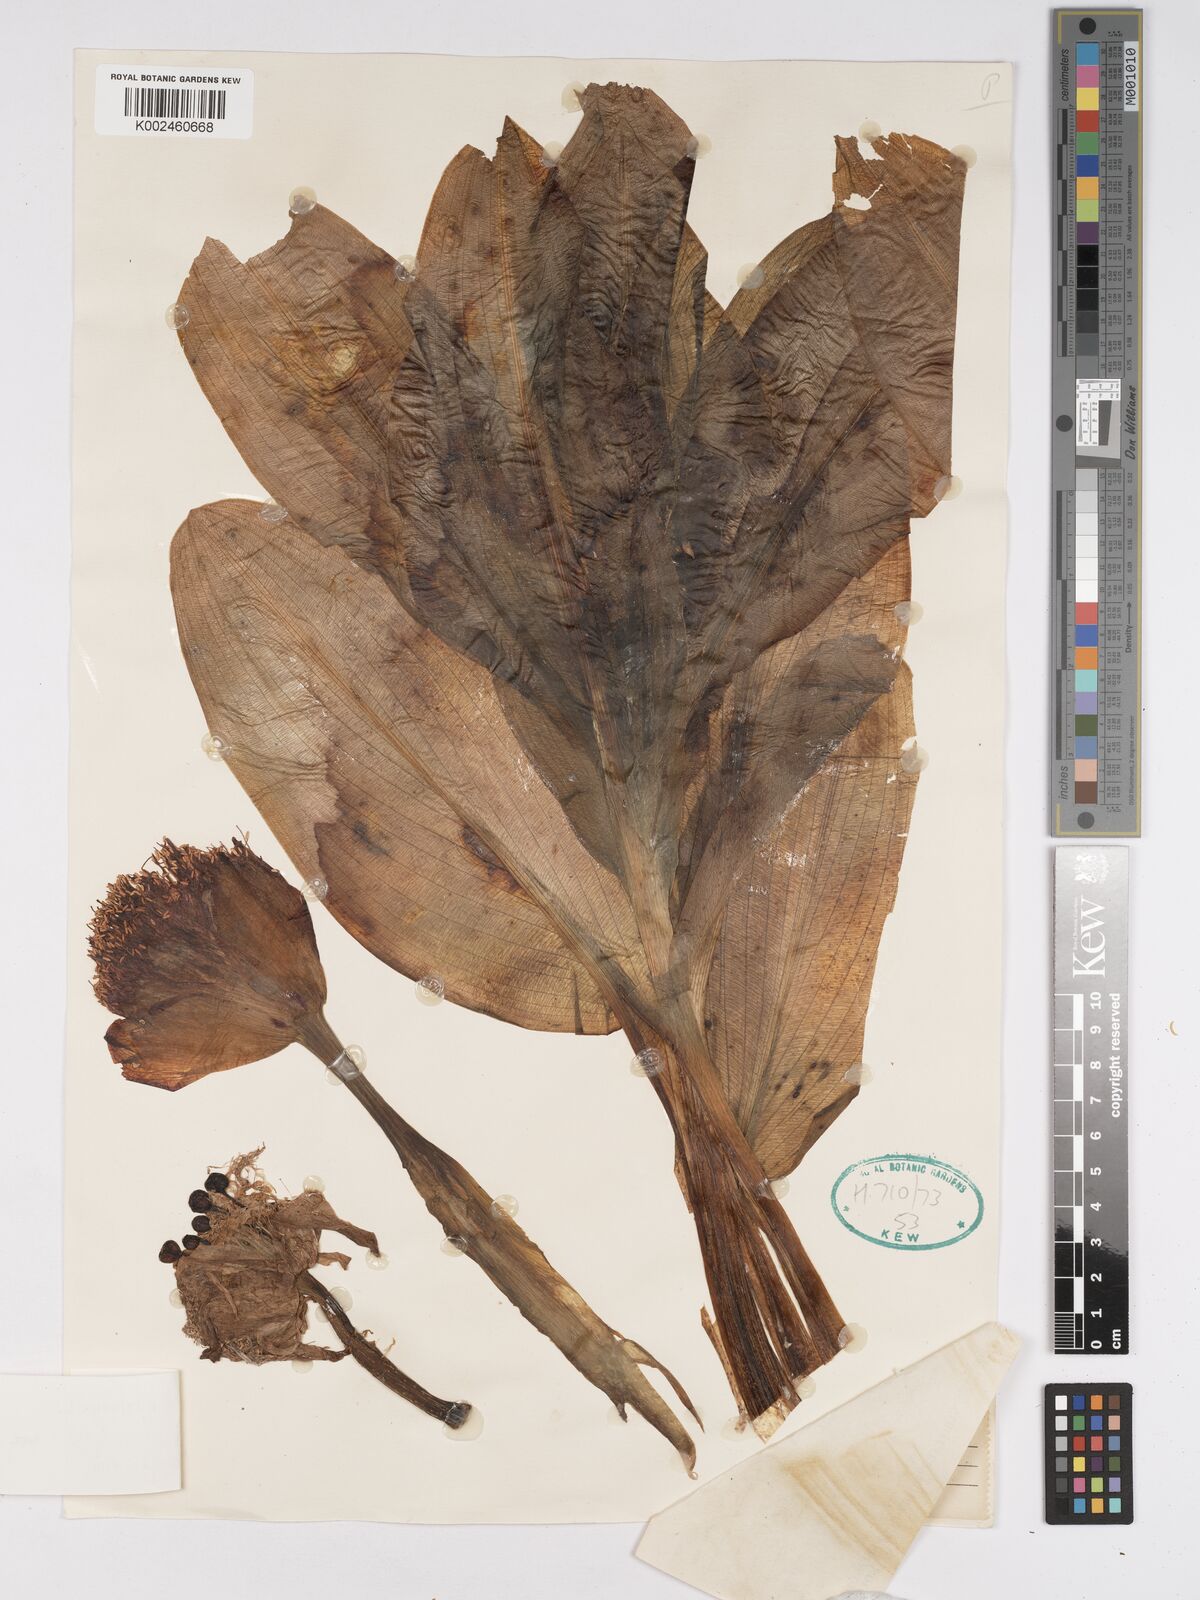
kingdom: Plantae
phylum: Tracheophyta
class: Liliopsida
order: Asparagales
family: Amaryllidaceae
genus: Scadoxus
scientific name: Scadoxus puniceus
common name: Royal-paintbrush
